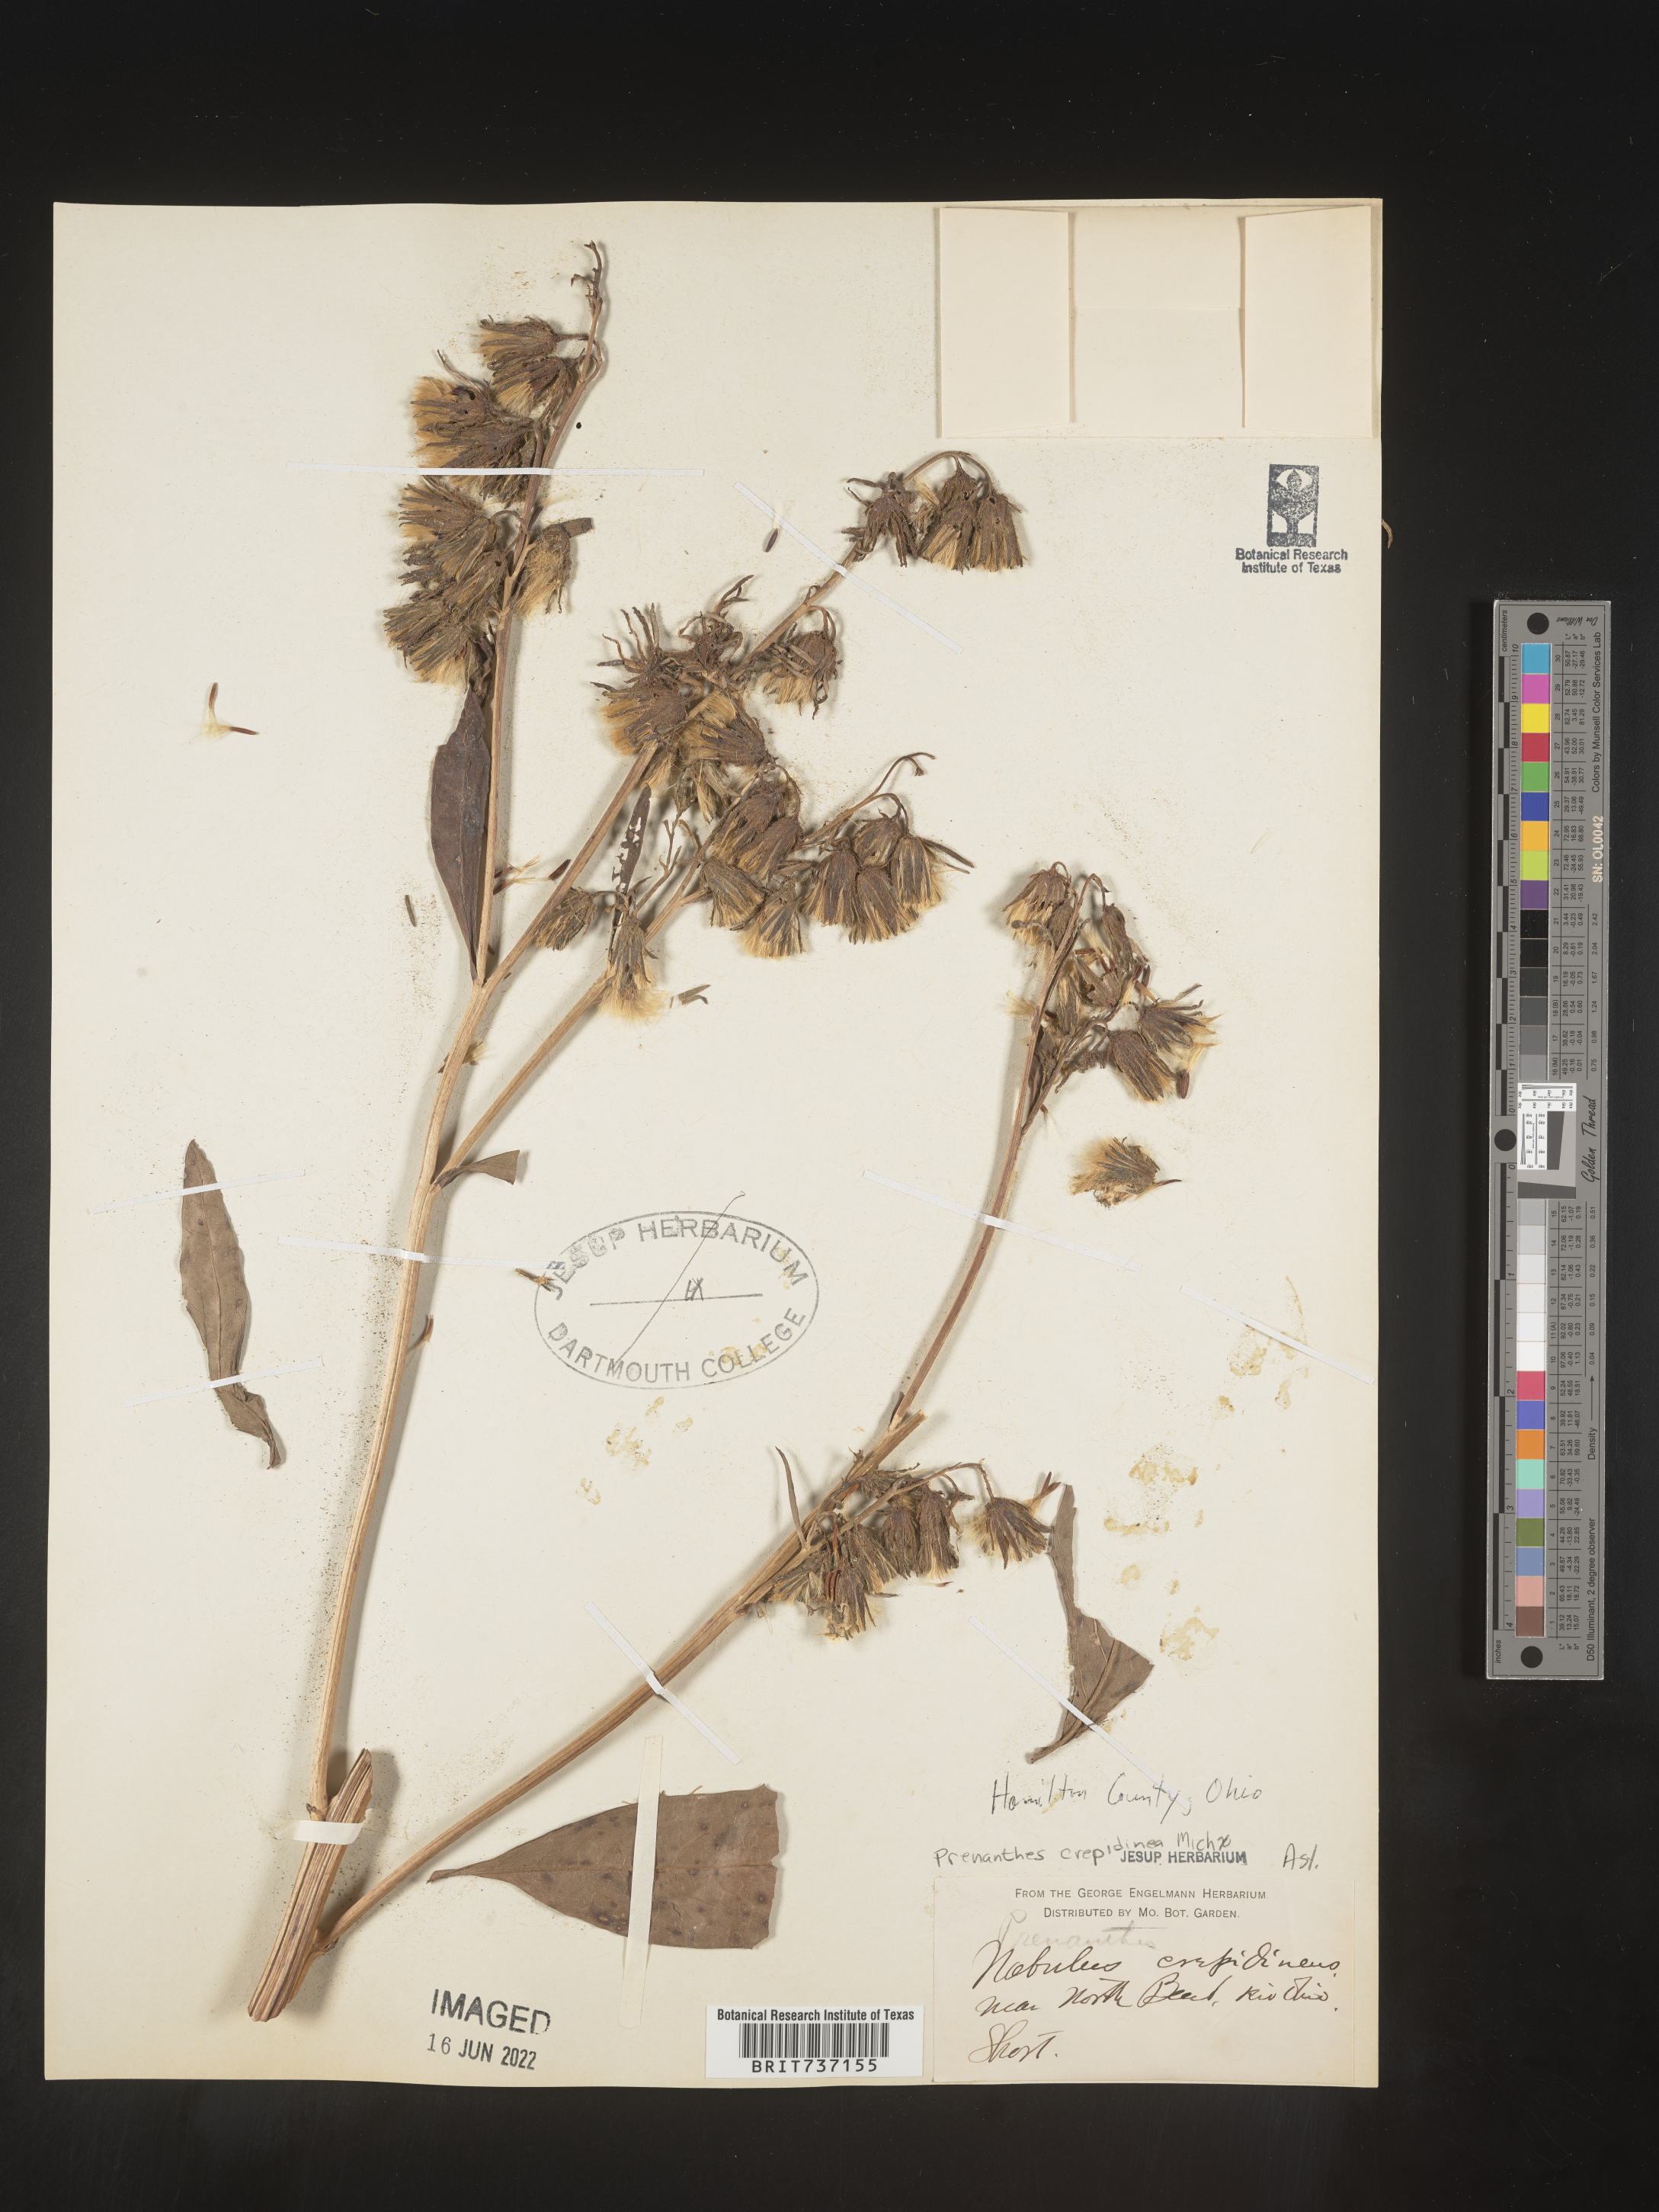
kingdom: Plantae
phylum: Tracheophyta
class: Magnoliopsida
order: Asterales
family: Asteraceae
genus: Prenanthes
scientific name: Prenanthes
